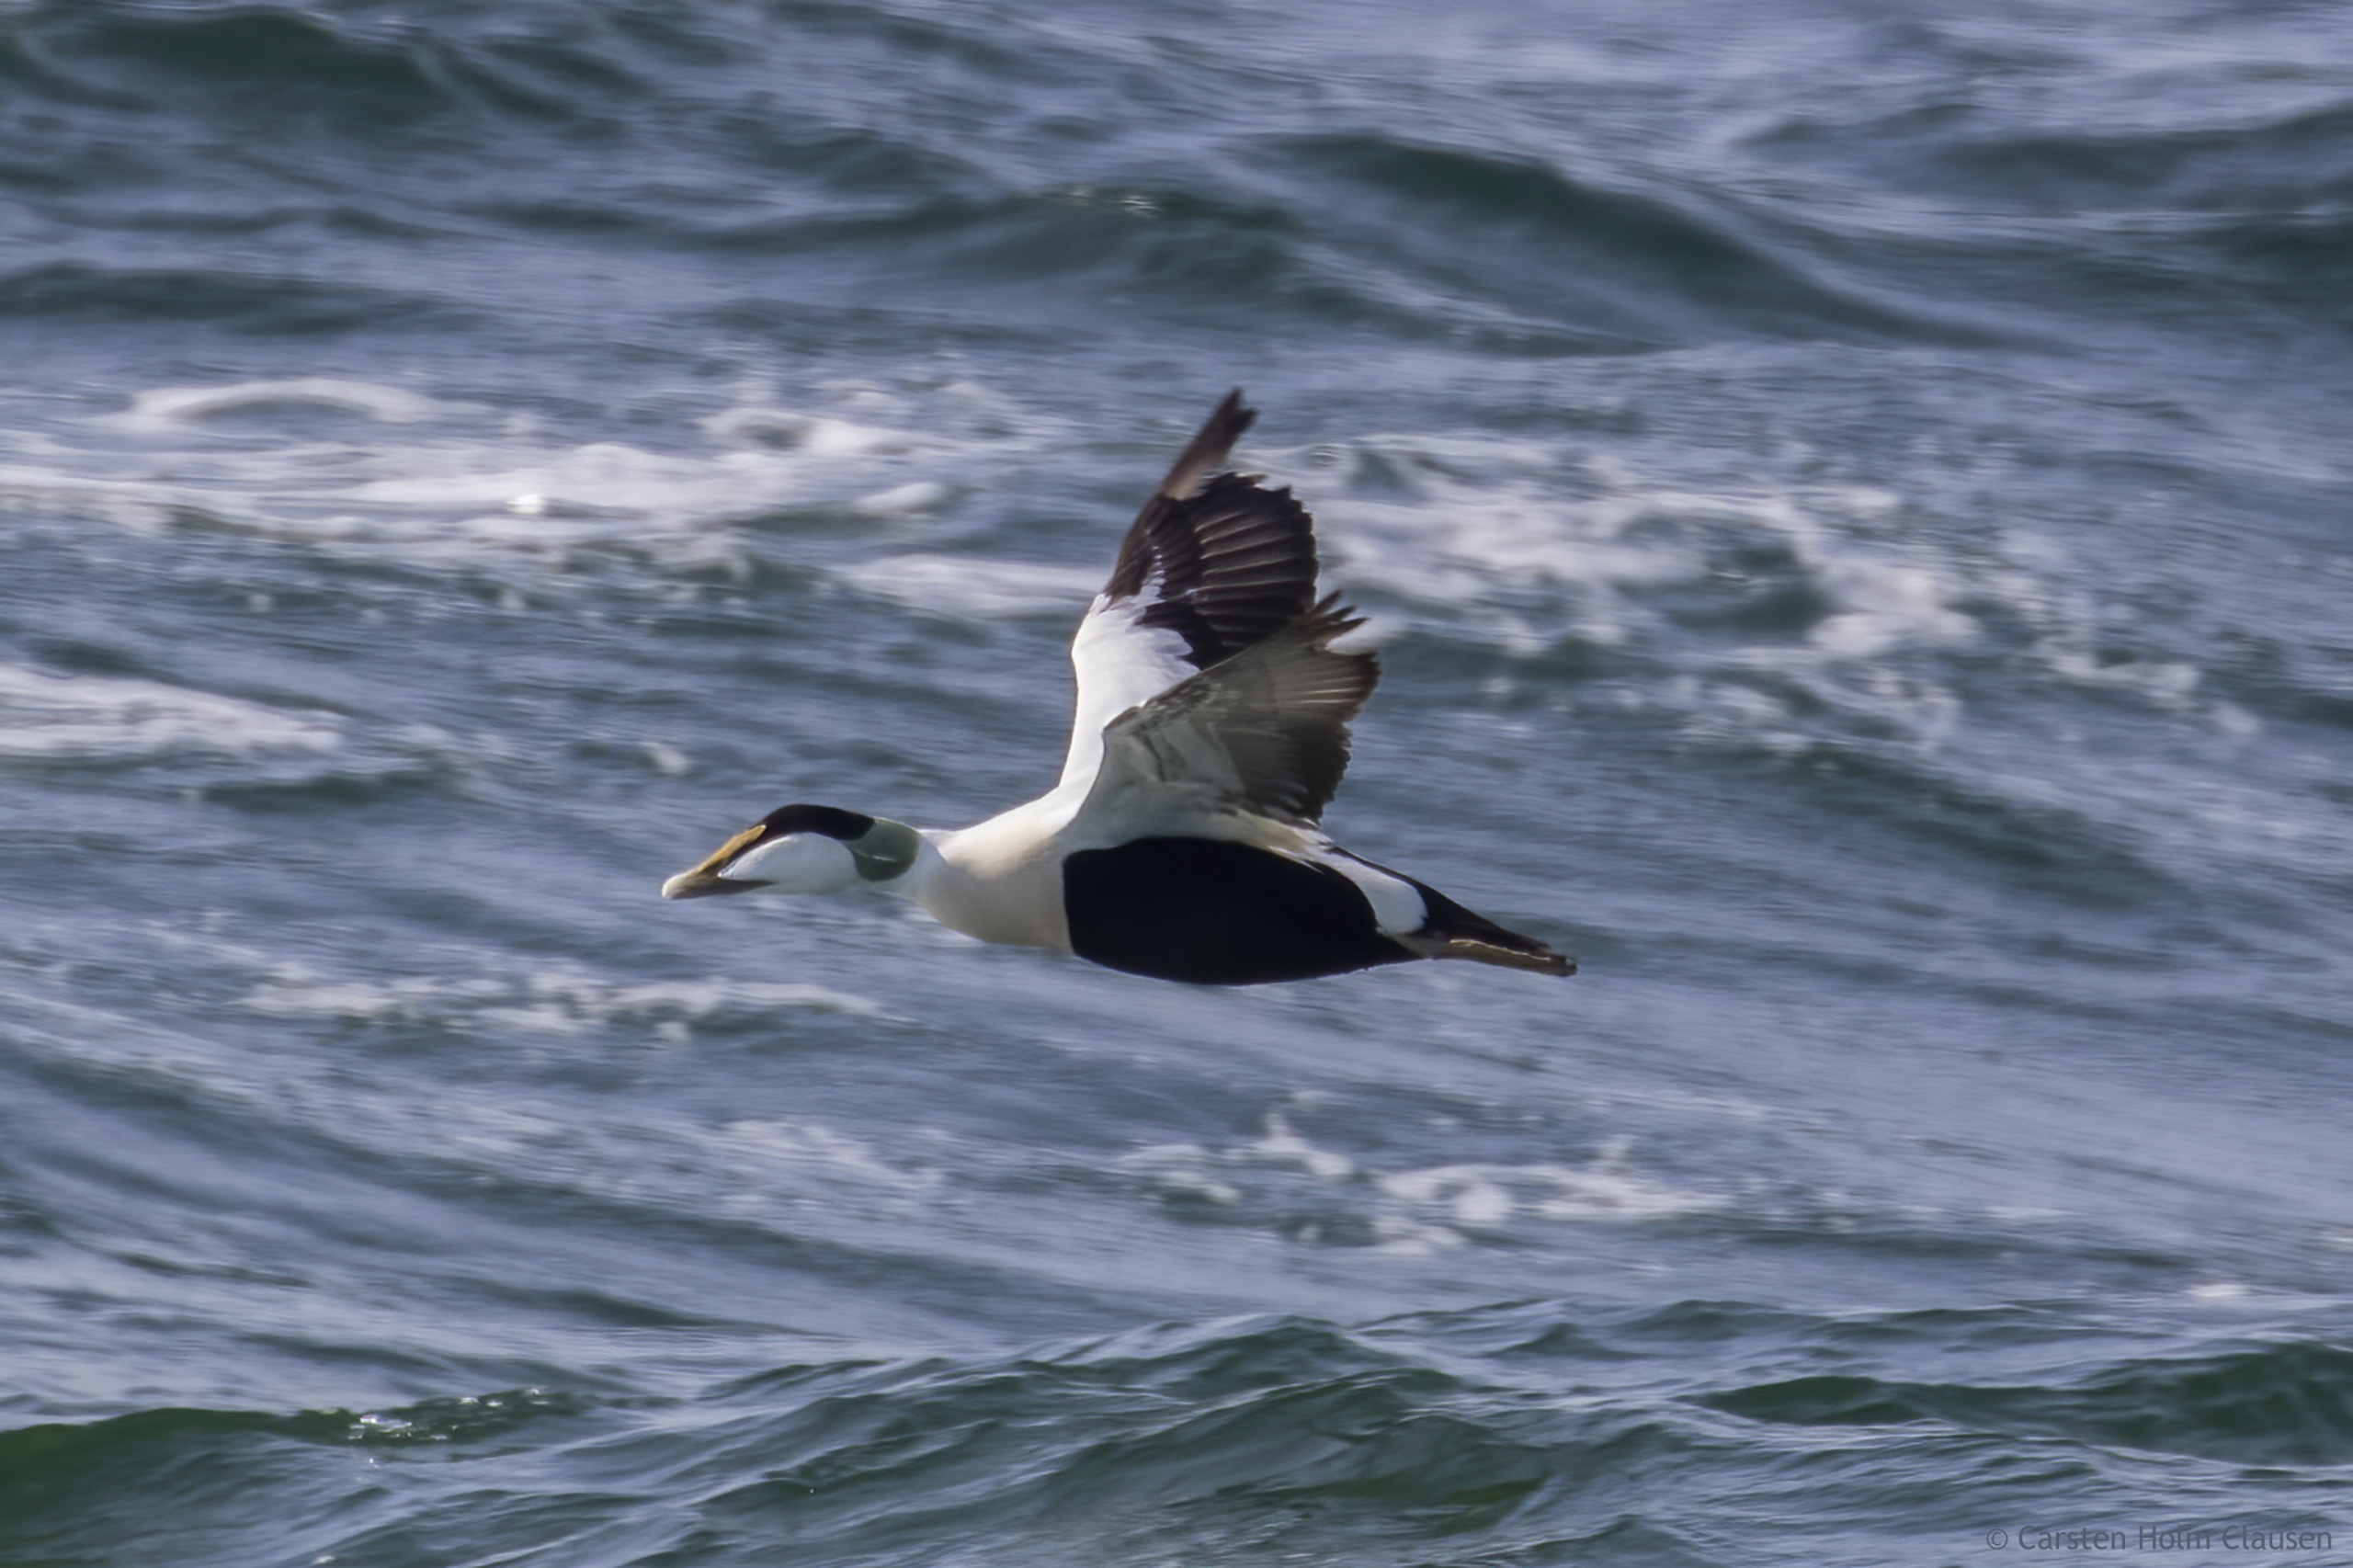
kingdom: Animalia
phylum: Chordata
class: Aves
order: Anseriformes
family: Anatidae
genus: Somateria
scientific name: Somateria mollissima
